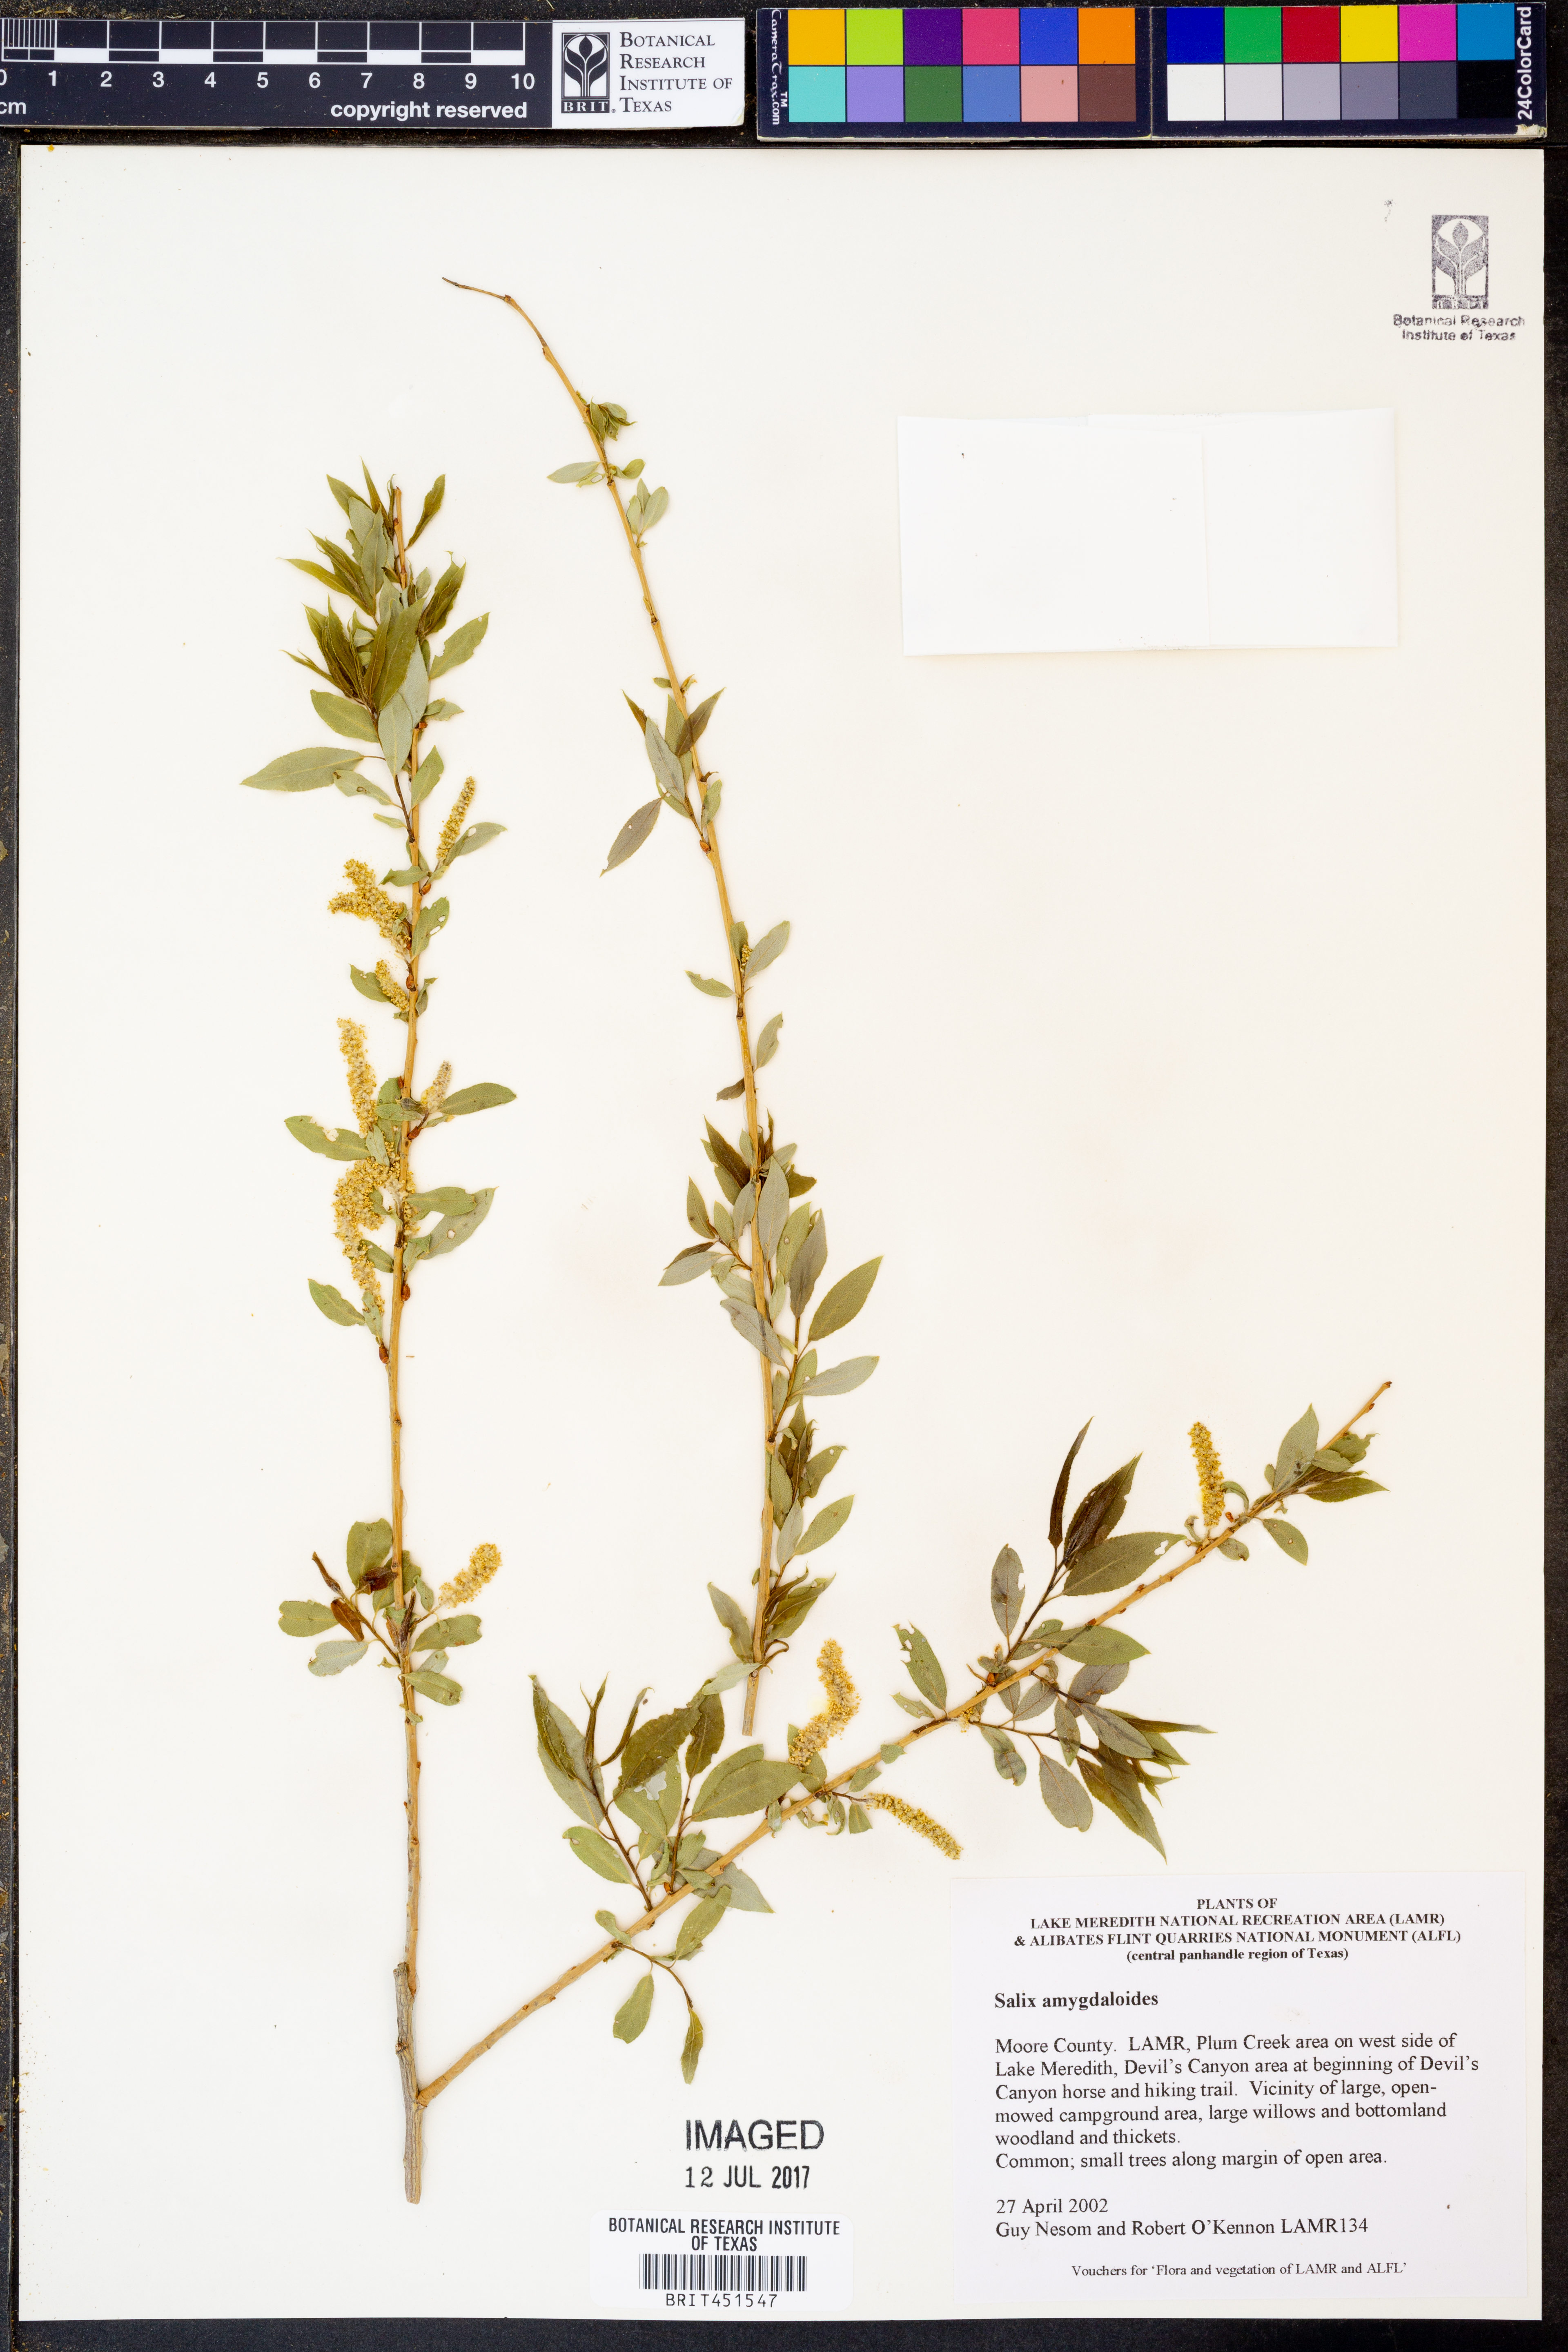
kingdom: Plantae
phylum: Tracheophyta
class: Magnoliopsida
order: Malpighiales
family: Salicaceae
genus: Salix
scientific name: Salix amygdaloides
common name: Peach leaf willow
